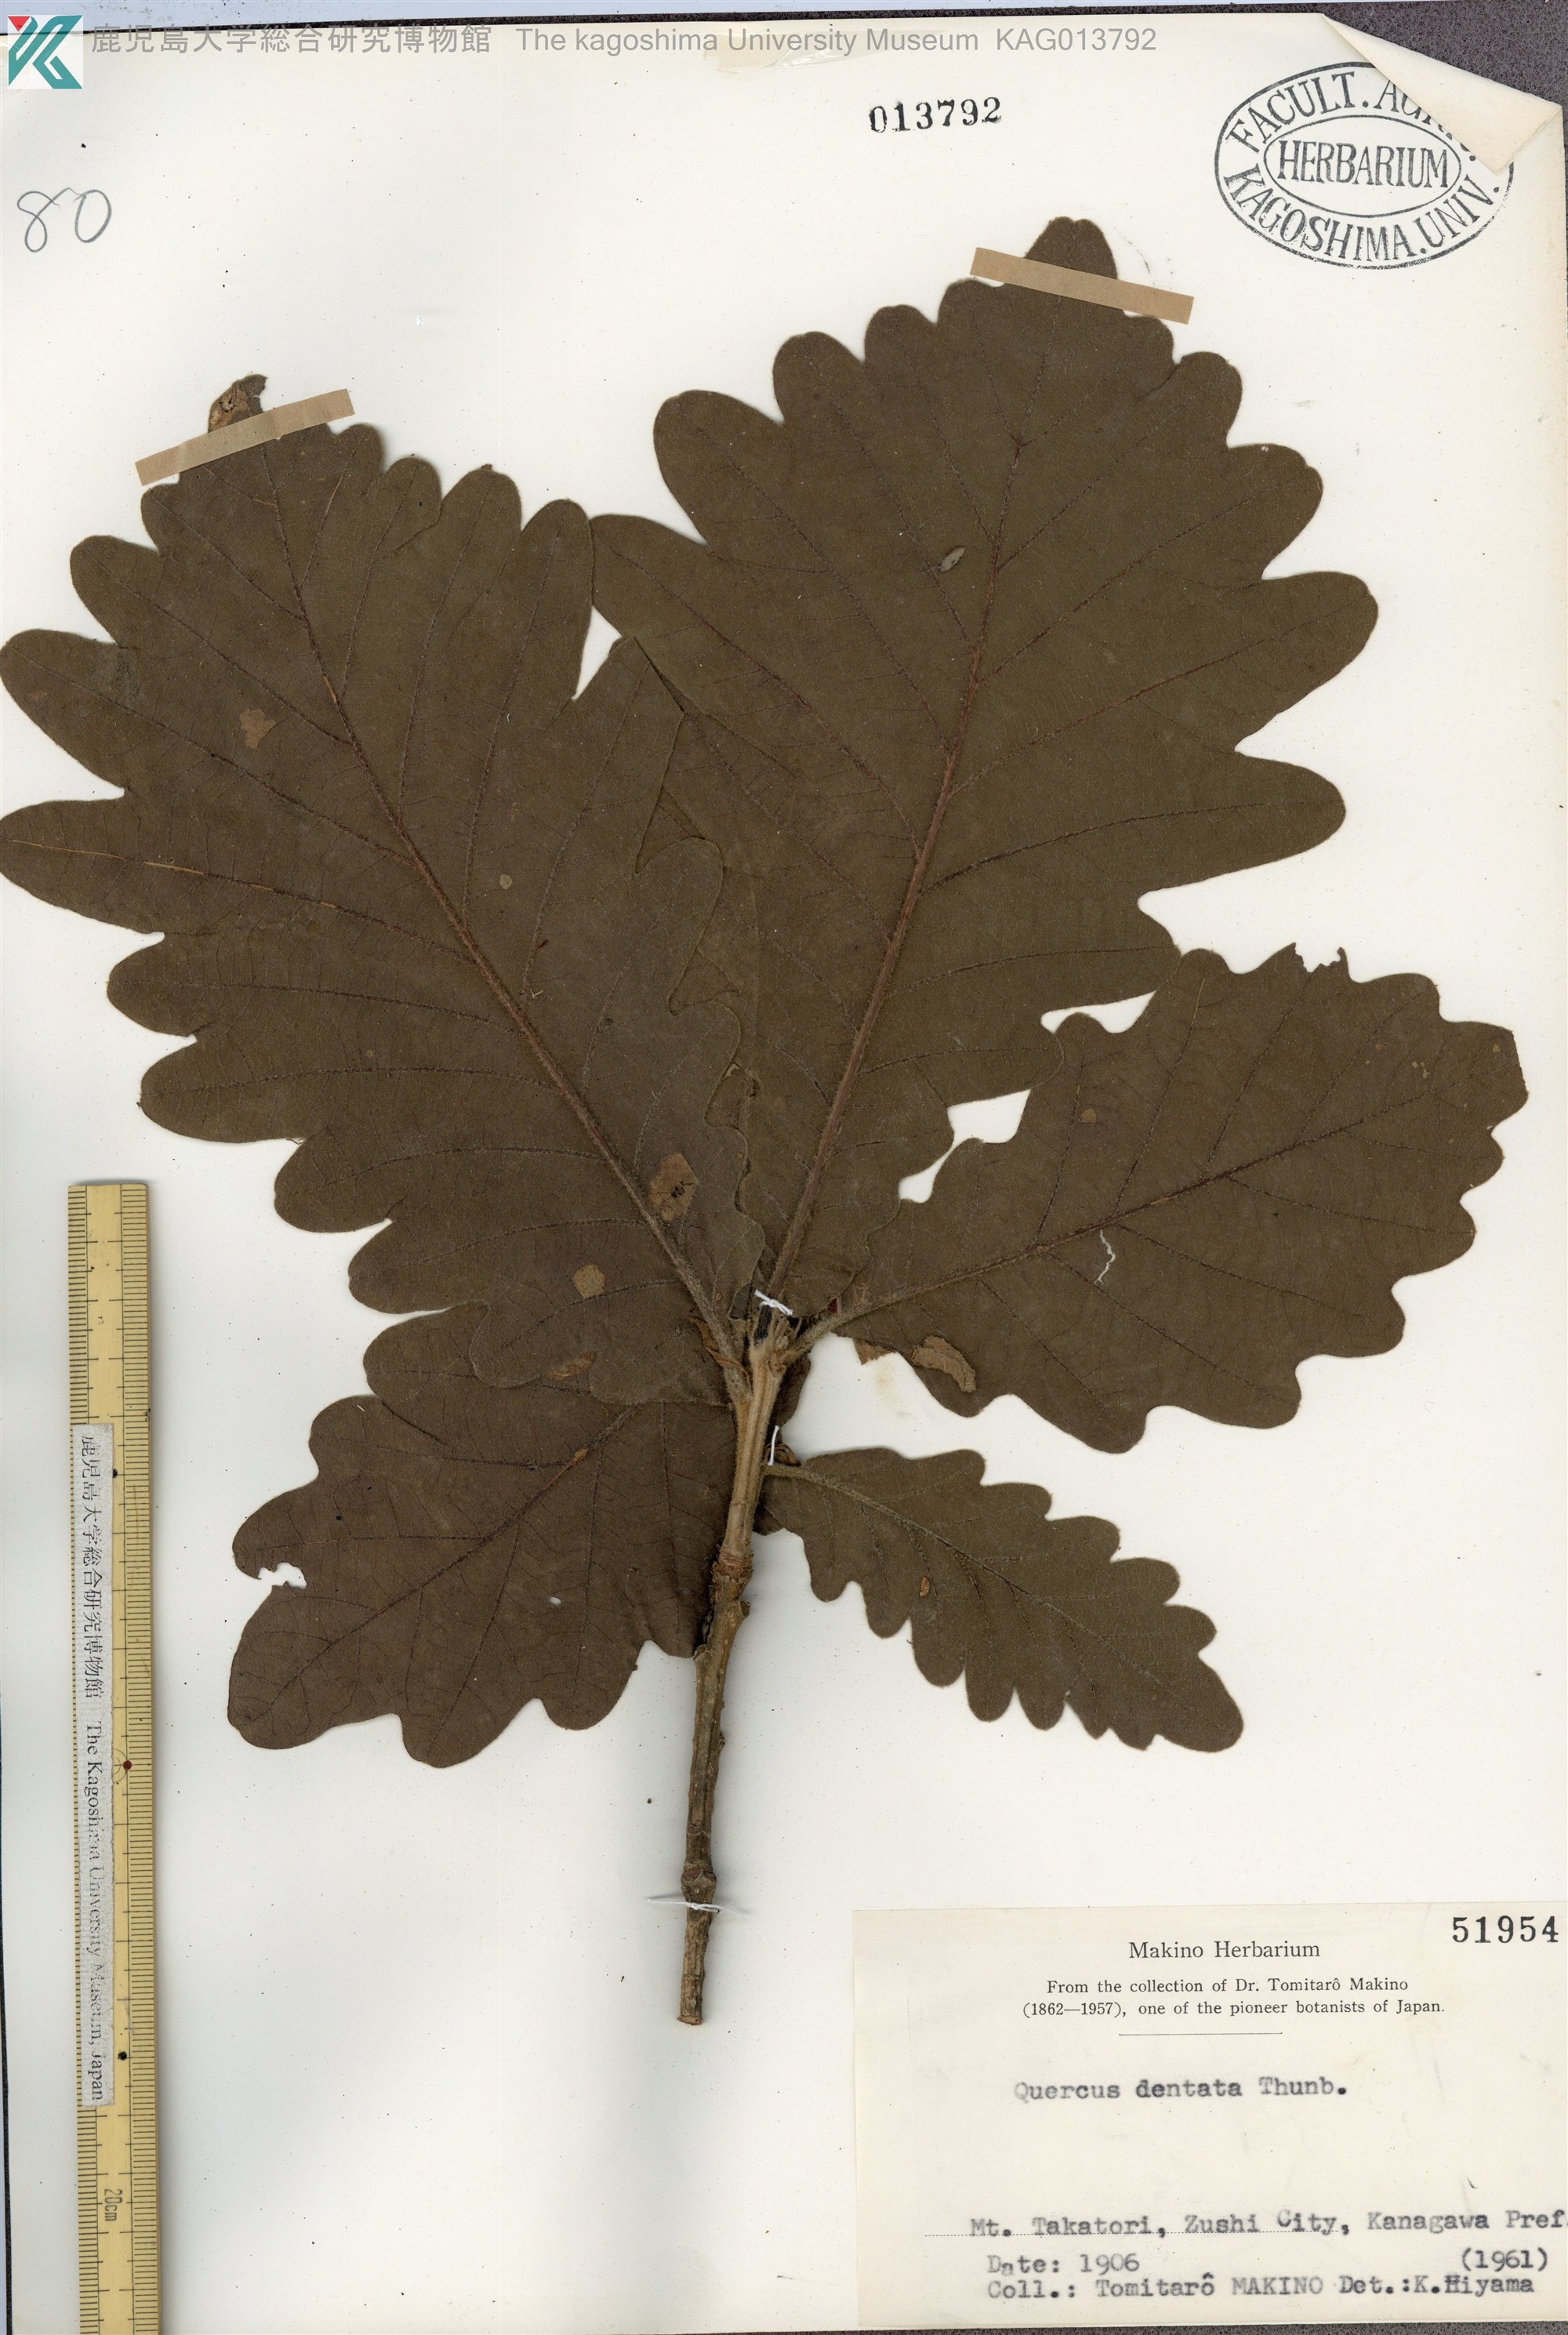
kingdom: Plantae
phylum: Tracheophyta
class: Magnoliopsida
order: Fagales
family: Fagaceae
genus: Quercus
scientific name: Quercus dentata
